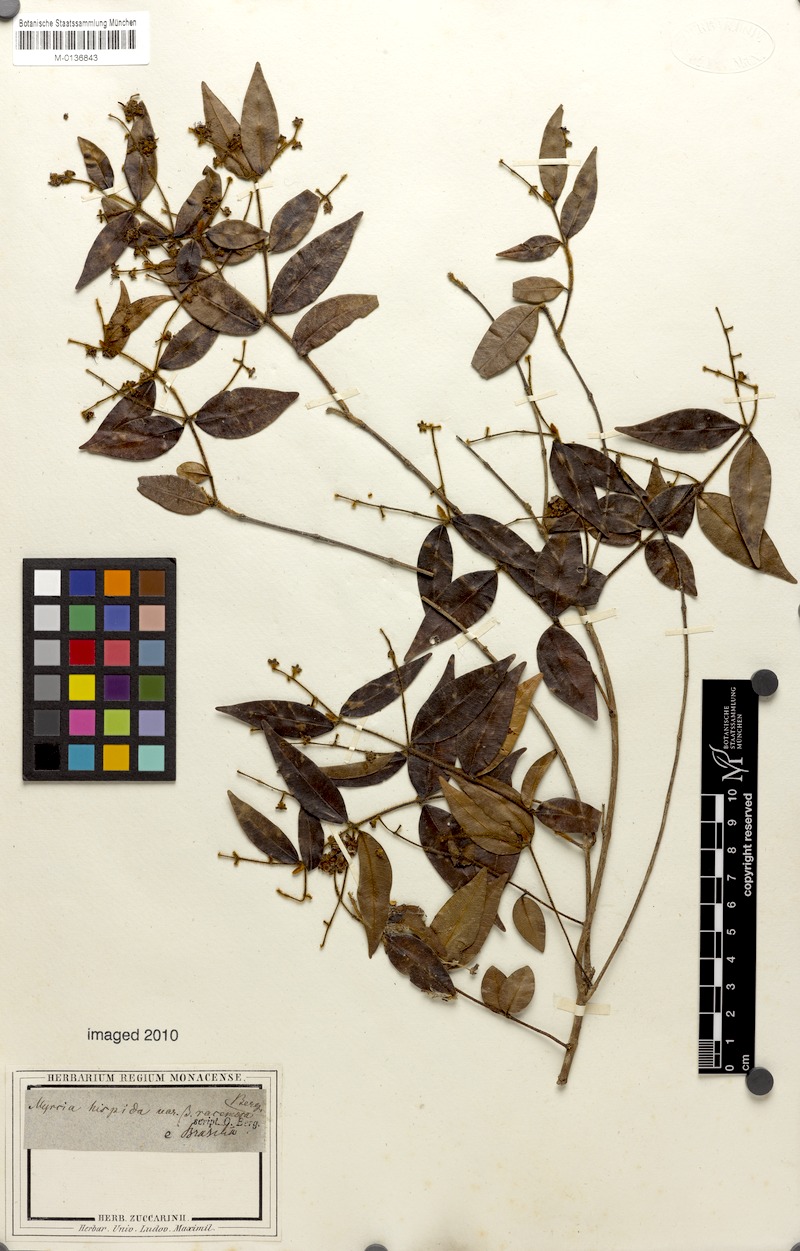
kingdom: Plantae
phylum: Tracheophyta
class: Magnoliopsida
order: Myrtales
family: Myrtaceae
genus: Myrcia
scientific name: Myrcia eriopus
